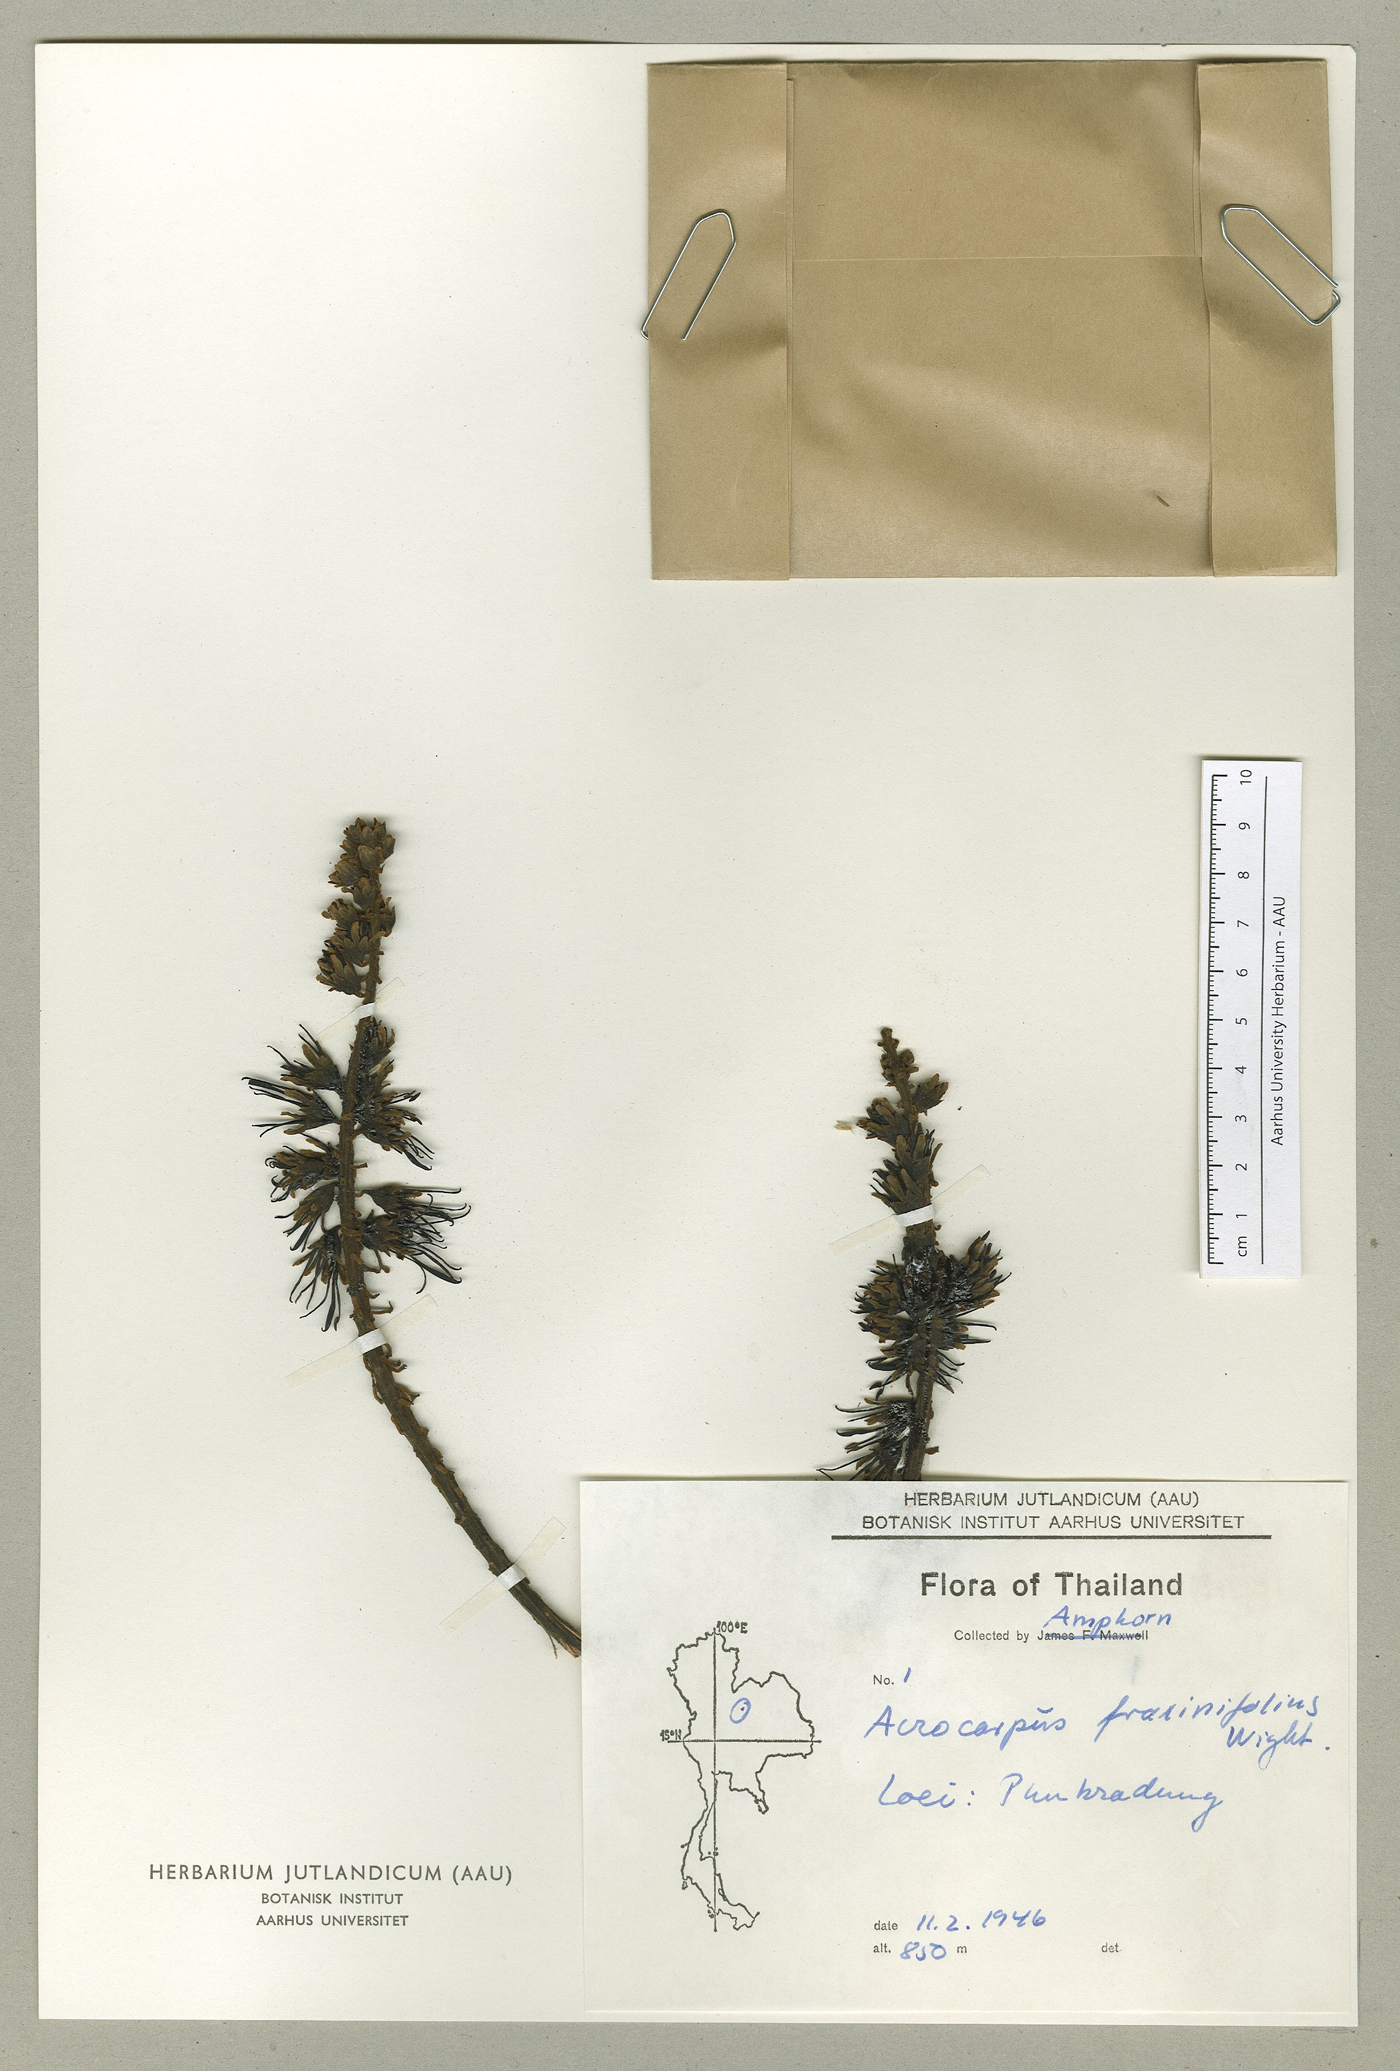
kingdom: Plantae
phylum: Tracheophyta
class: Magnoliopsida
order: Fabales
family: Fabaceae
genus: Acrocarpus
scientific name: Acrocarpus fraxinifolius
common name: Kenya coffeeshade
